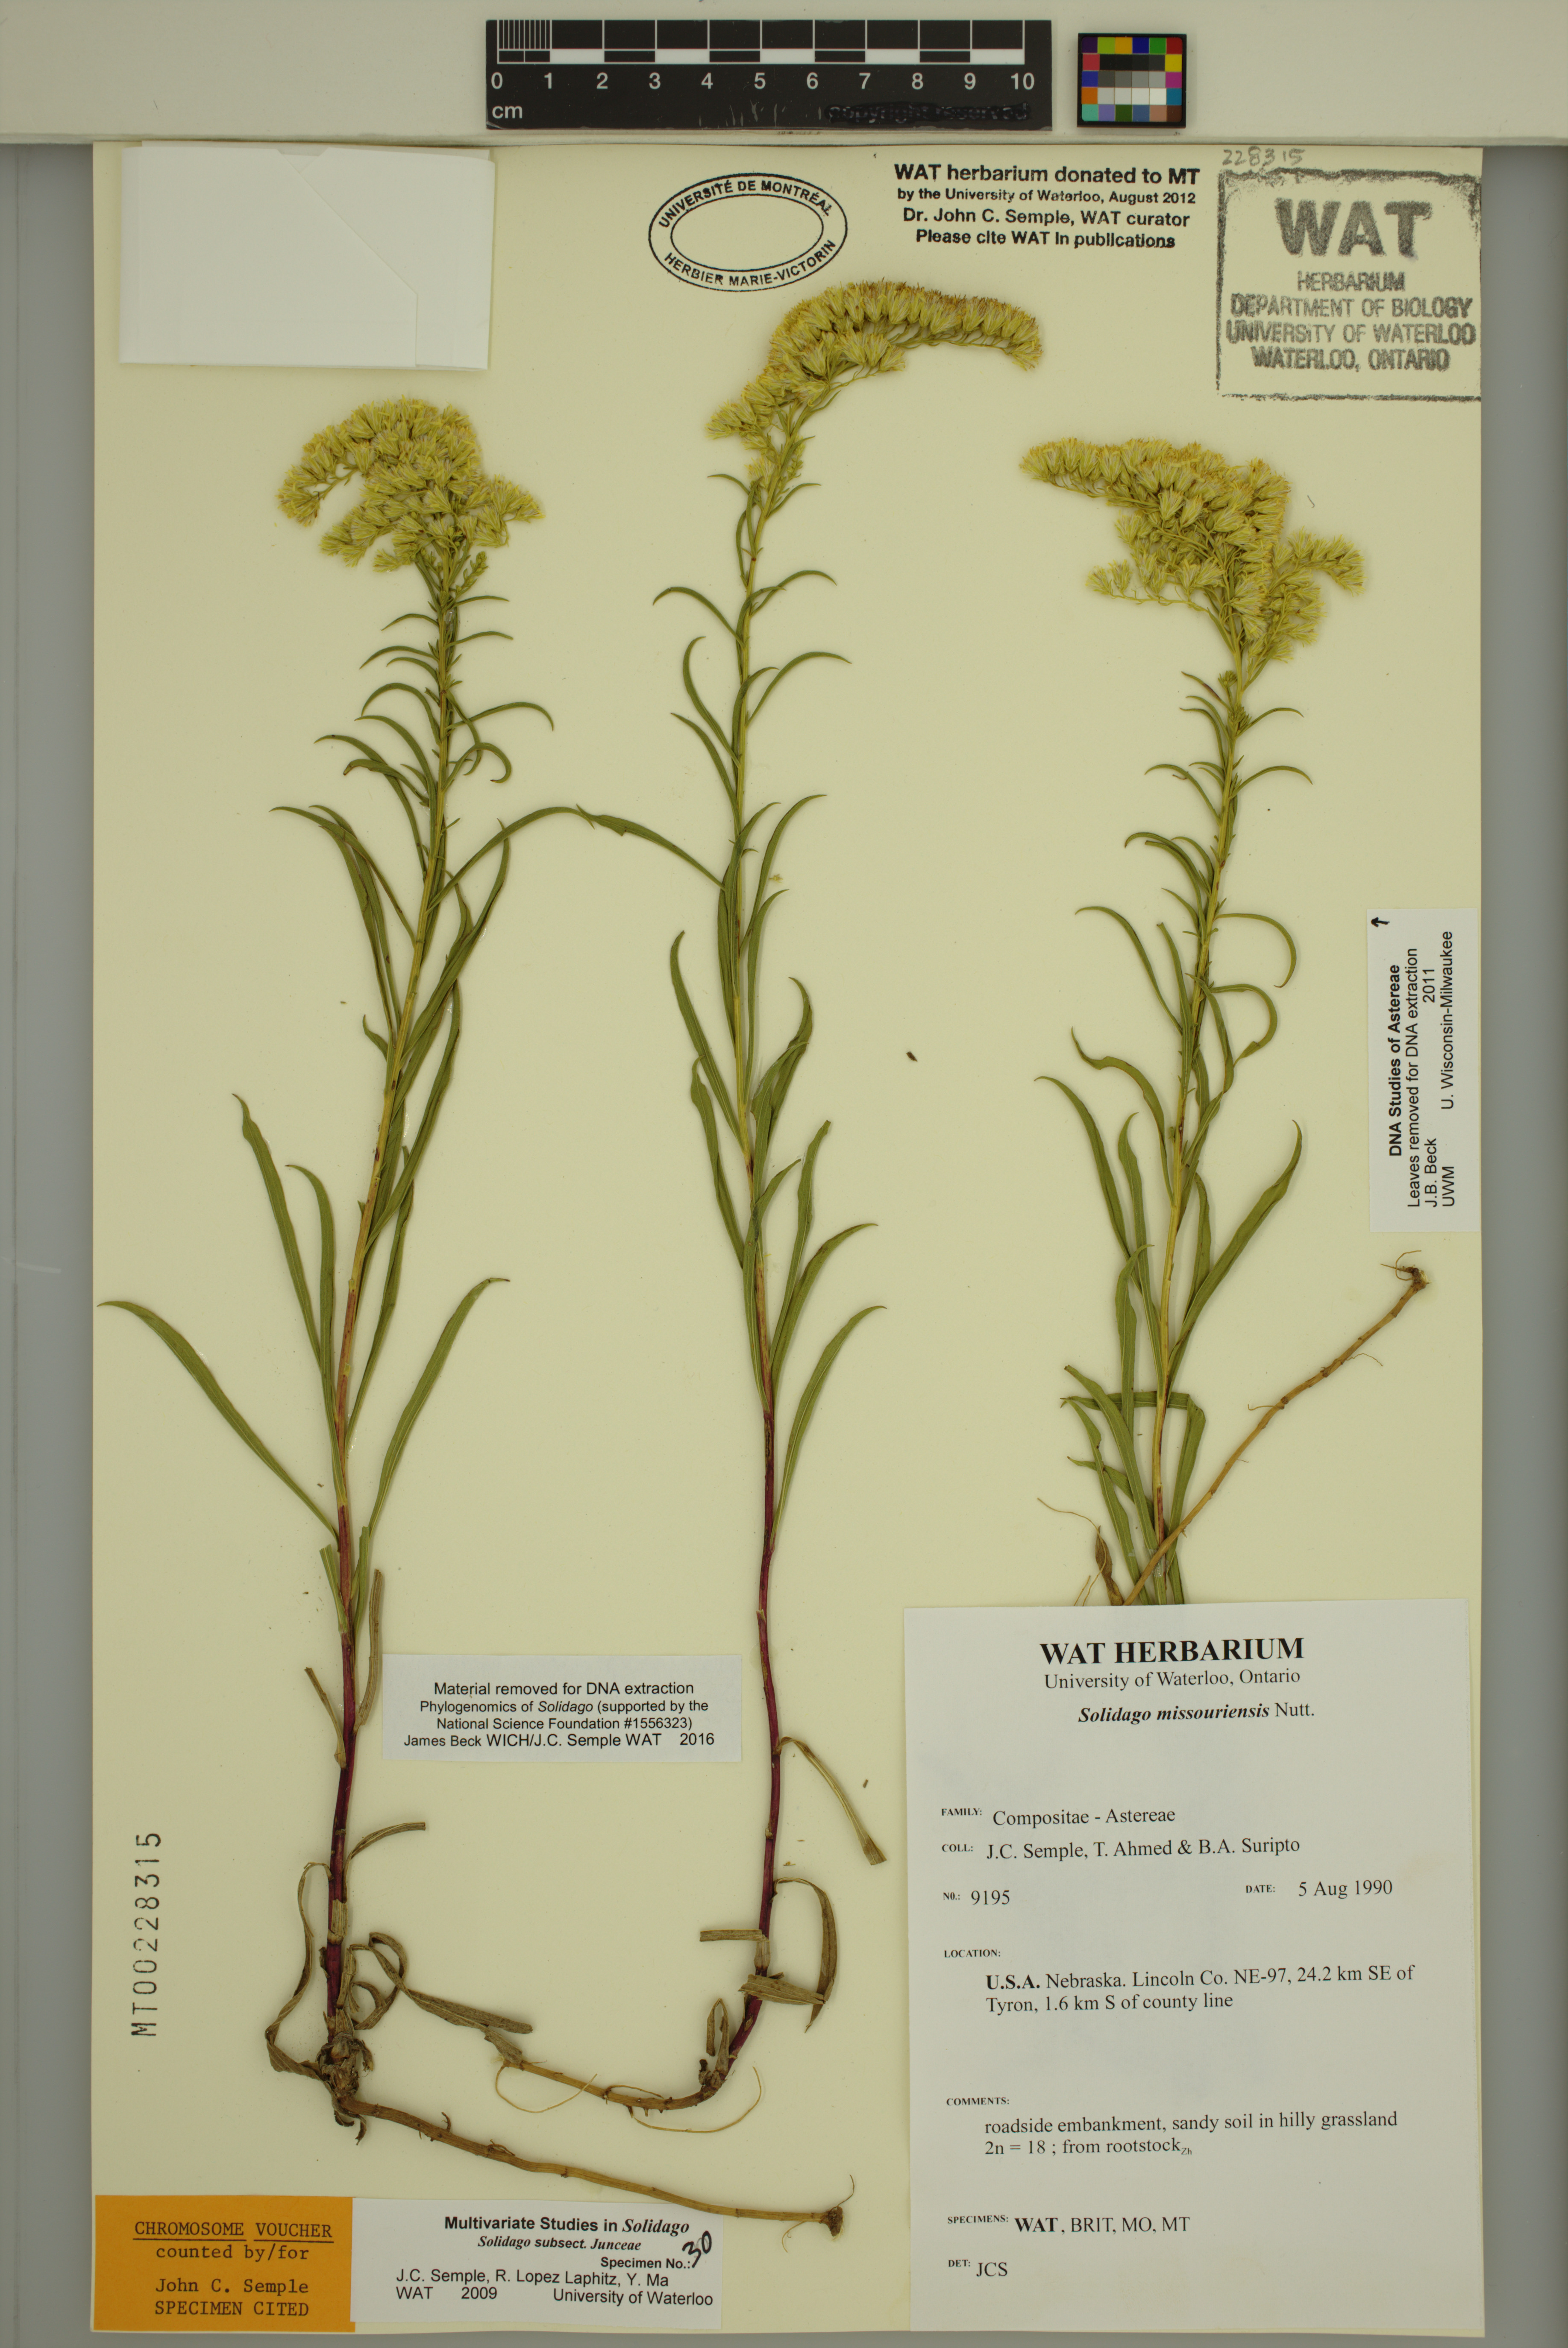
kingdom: Plantae
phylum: Tracheophyta
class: Magnoliopsida
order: Asterales
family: Asteraceae
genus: Solidago
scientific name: Solidago missouriensis
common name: Prairie goldenrod
